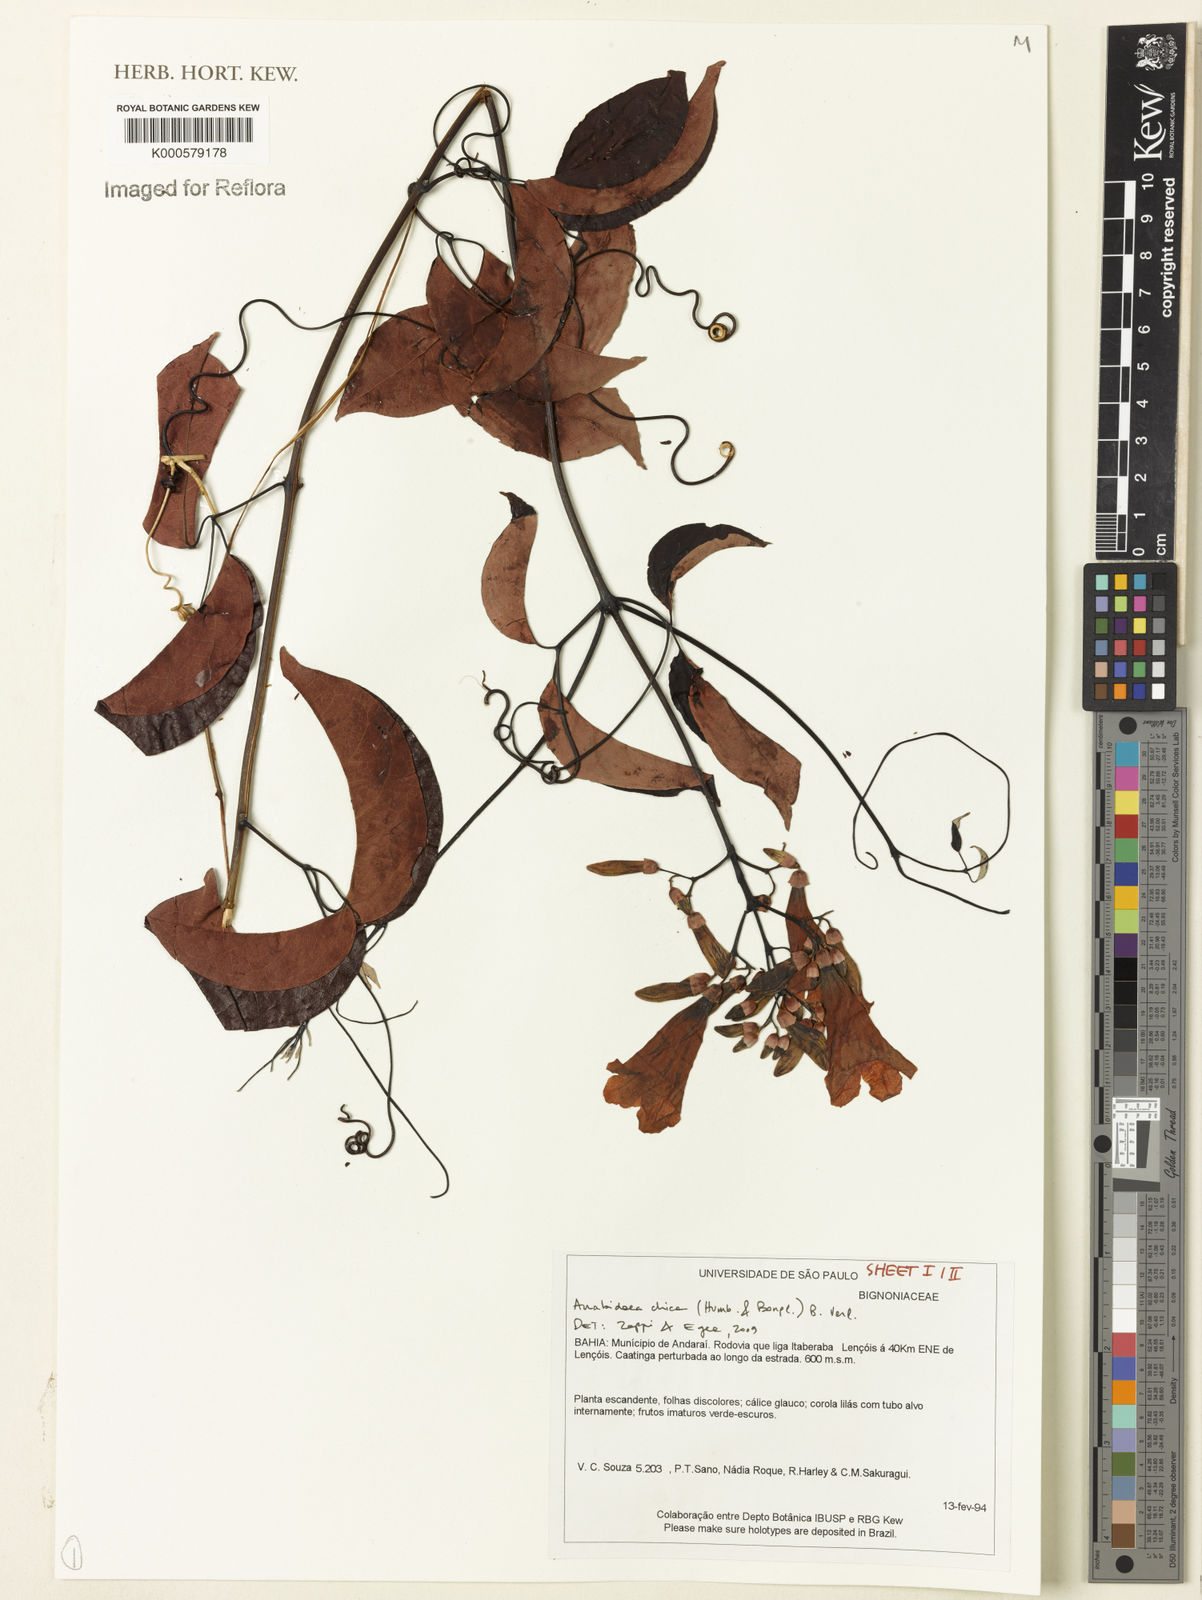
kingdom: Plantae
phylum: Tracheophyta
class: Magnoliopsida
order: Lamiales
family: Bignoniaceae
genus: Fridericia
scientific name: Fridericia chica
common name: Cricketvine
